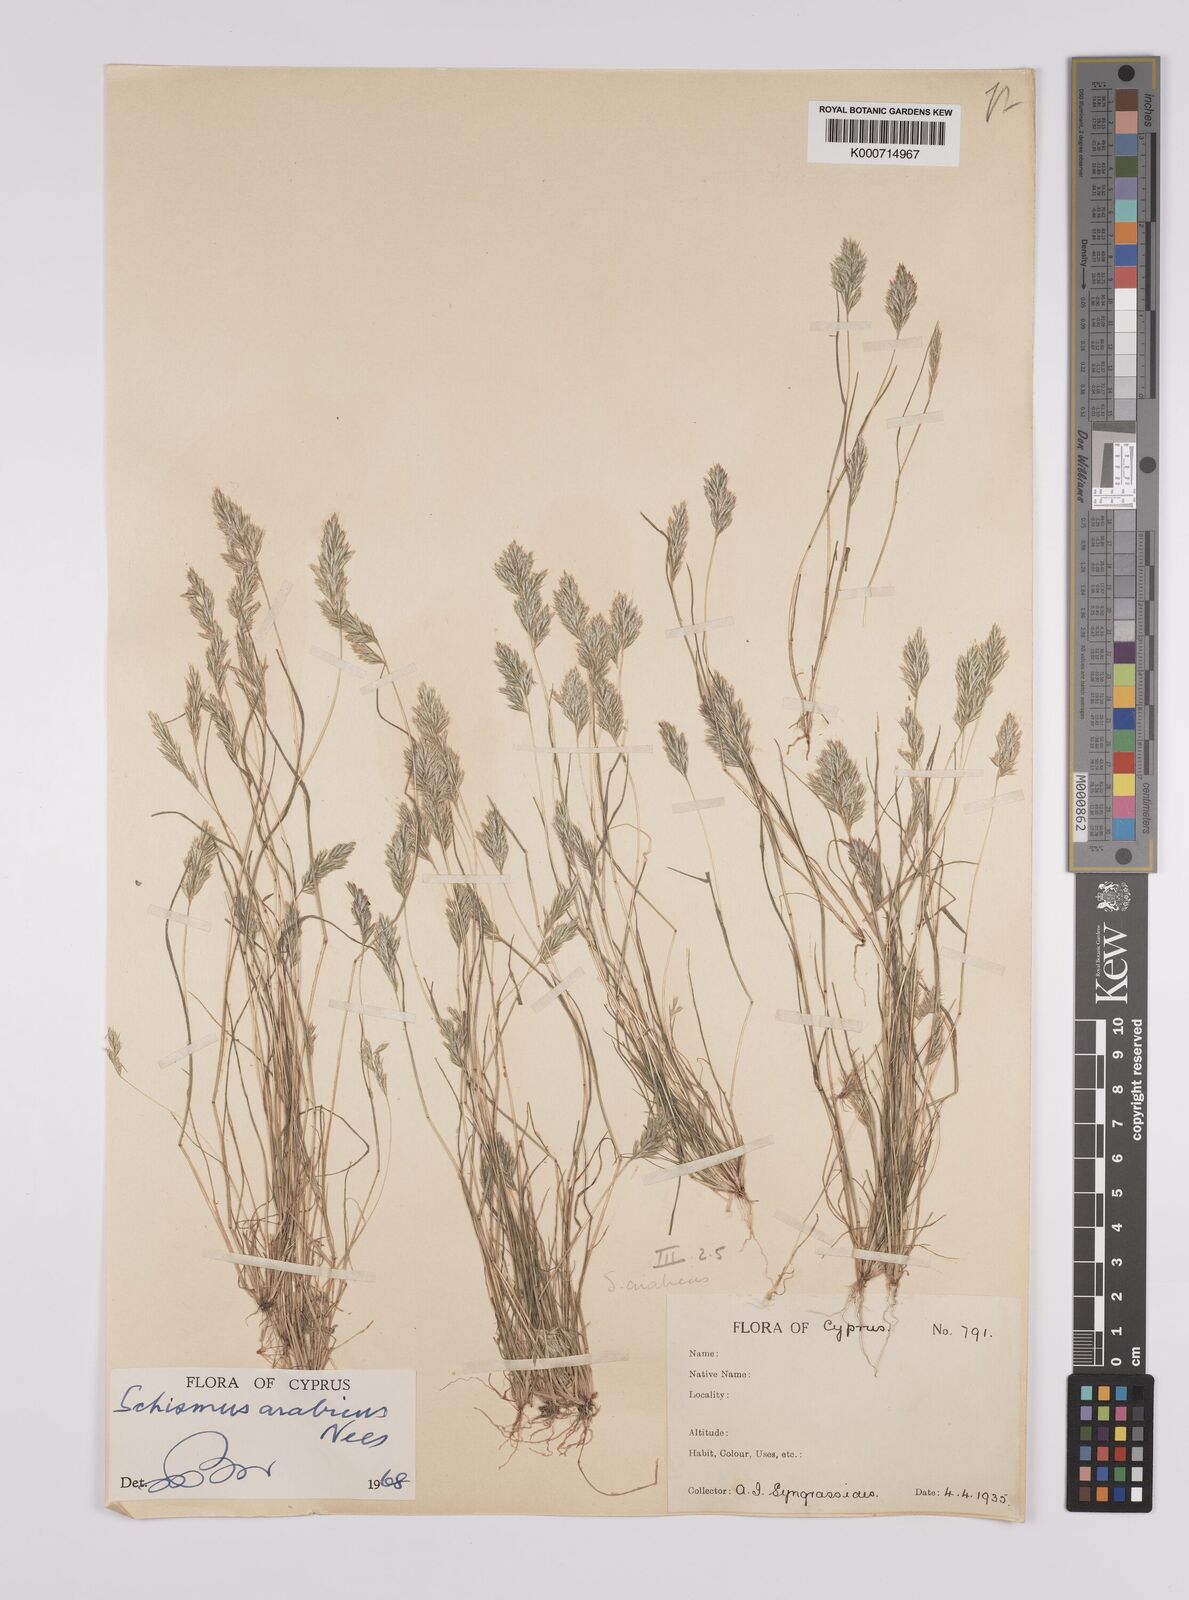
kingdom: Plantae
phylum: Tracheophyta
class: Liliopsida
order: Poales
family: Poaceae
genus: Schismus
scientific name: Schismus arabicus
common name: Arabian schismus
